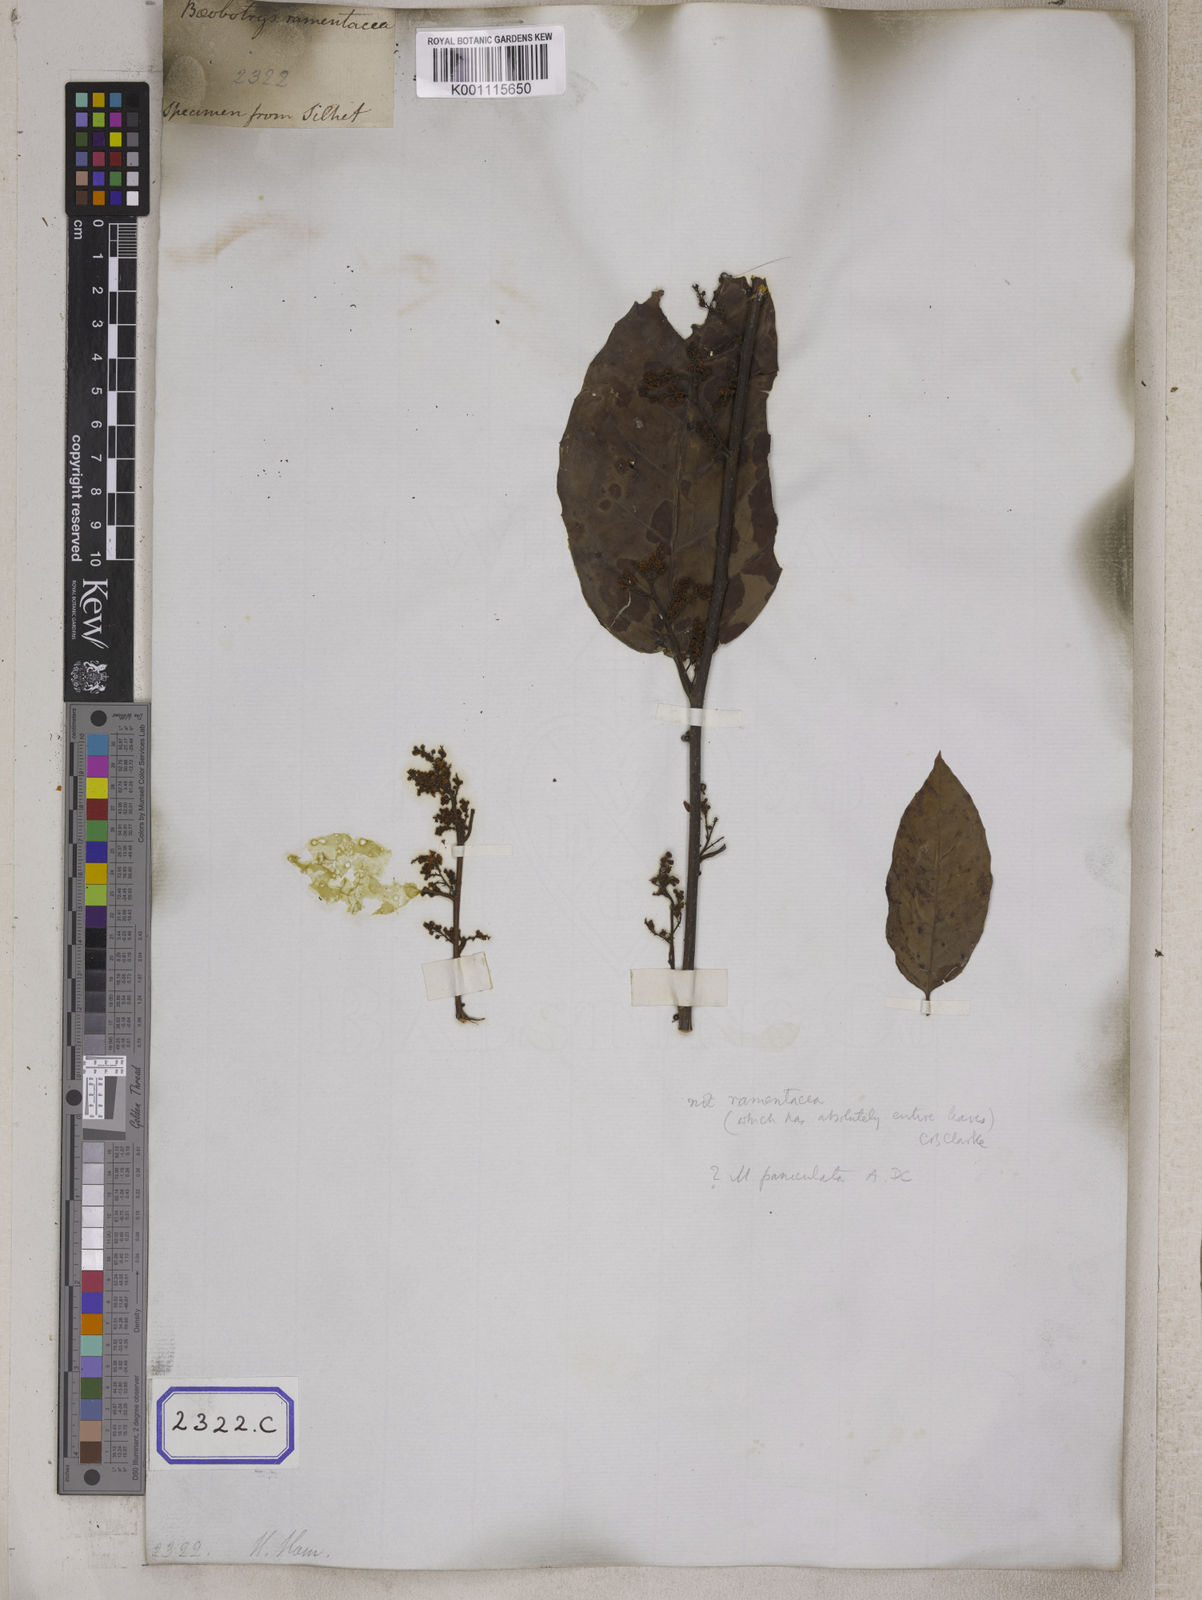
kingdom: Plantae
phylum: Tracheophyta
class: Magnoliopsida
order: Ericales
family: Primulaceae
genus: Maesa
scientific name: Maesa ramentacea
